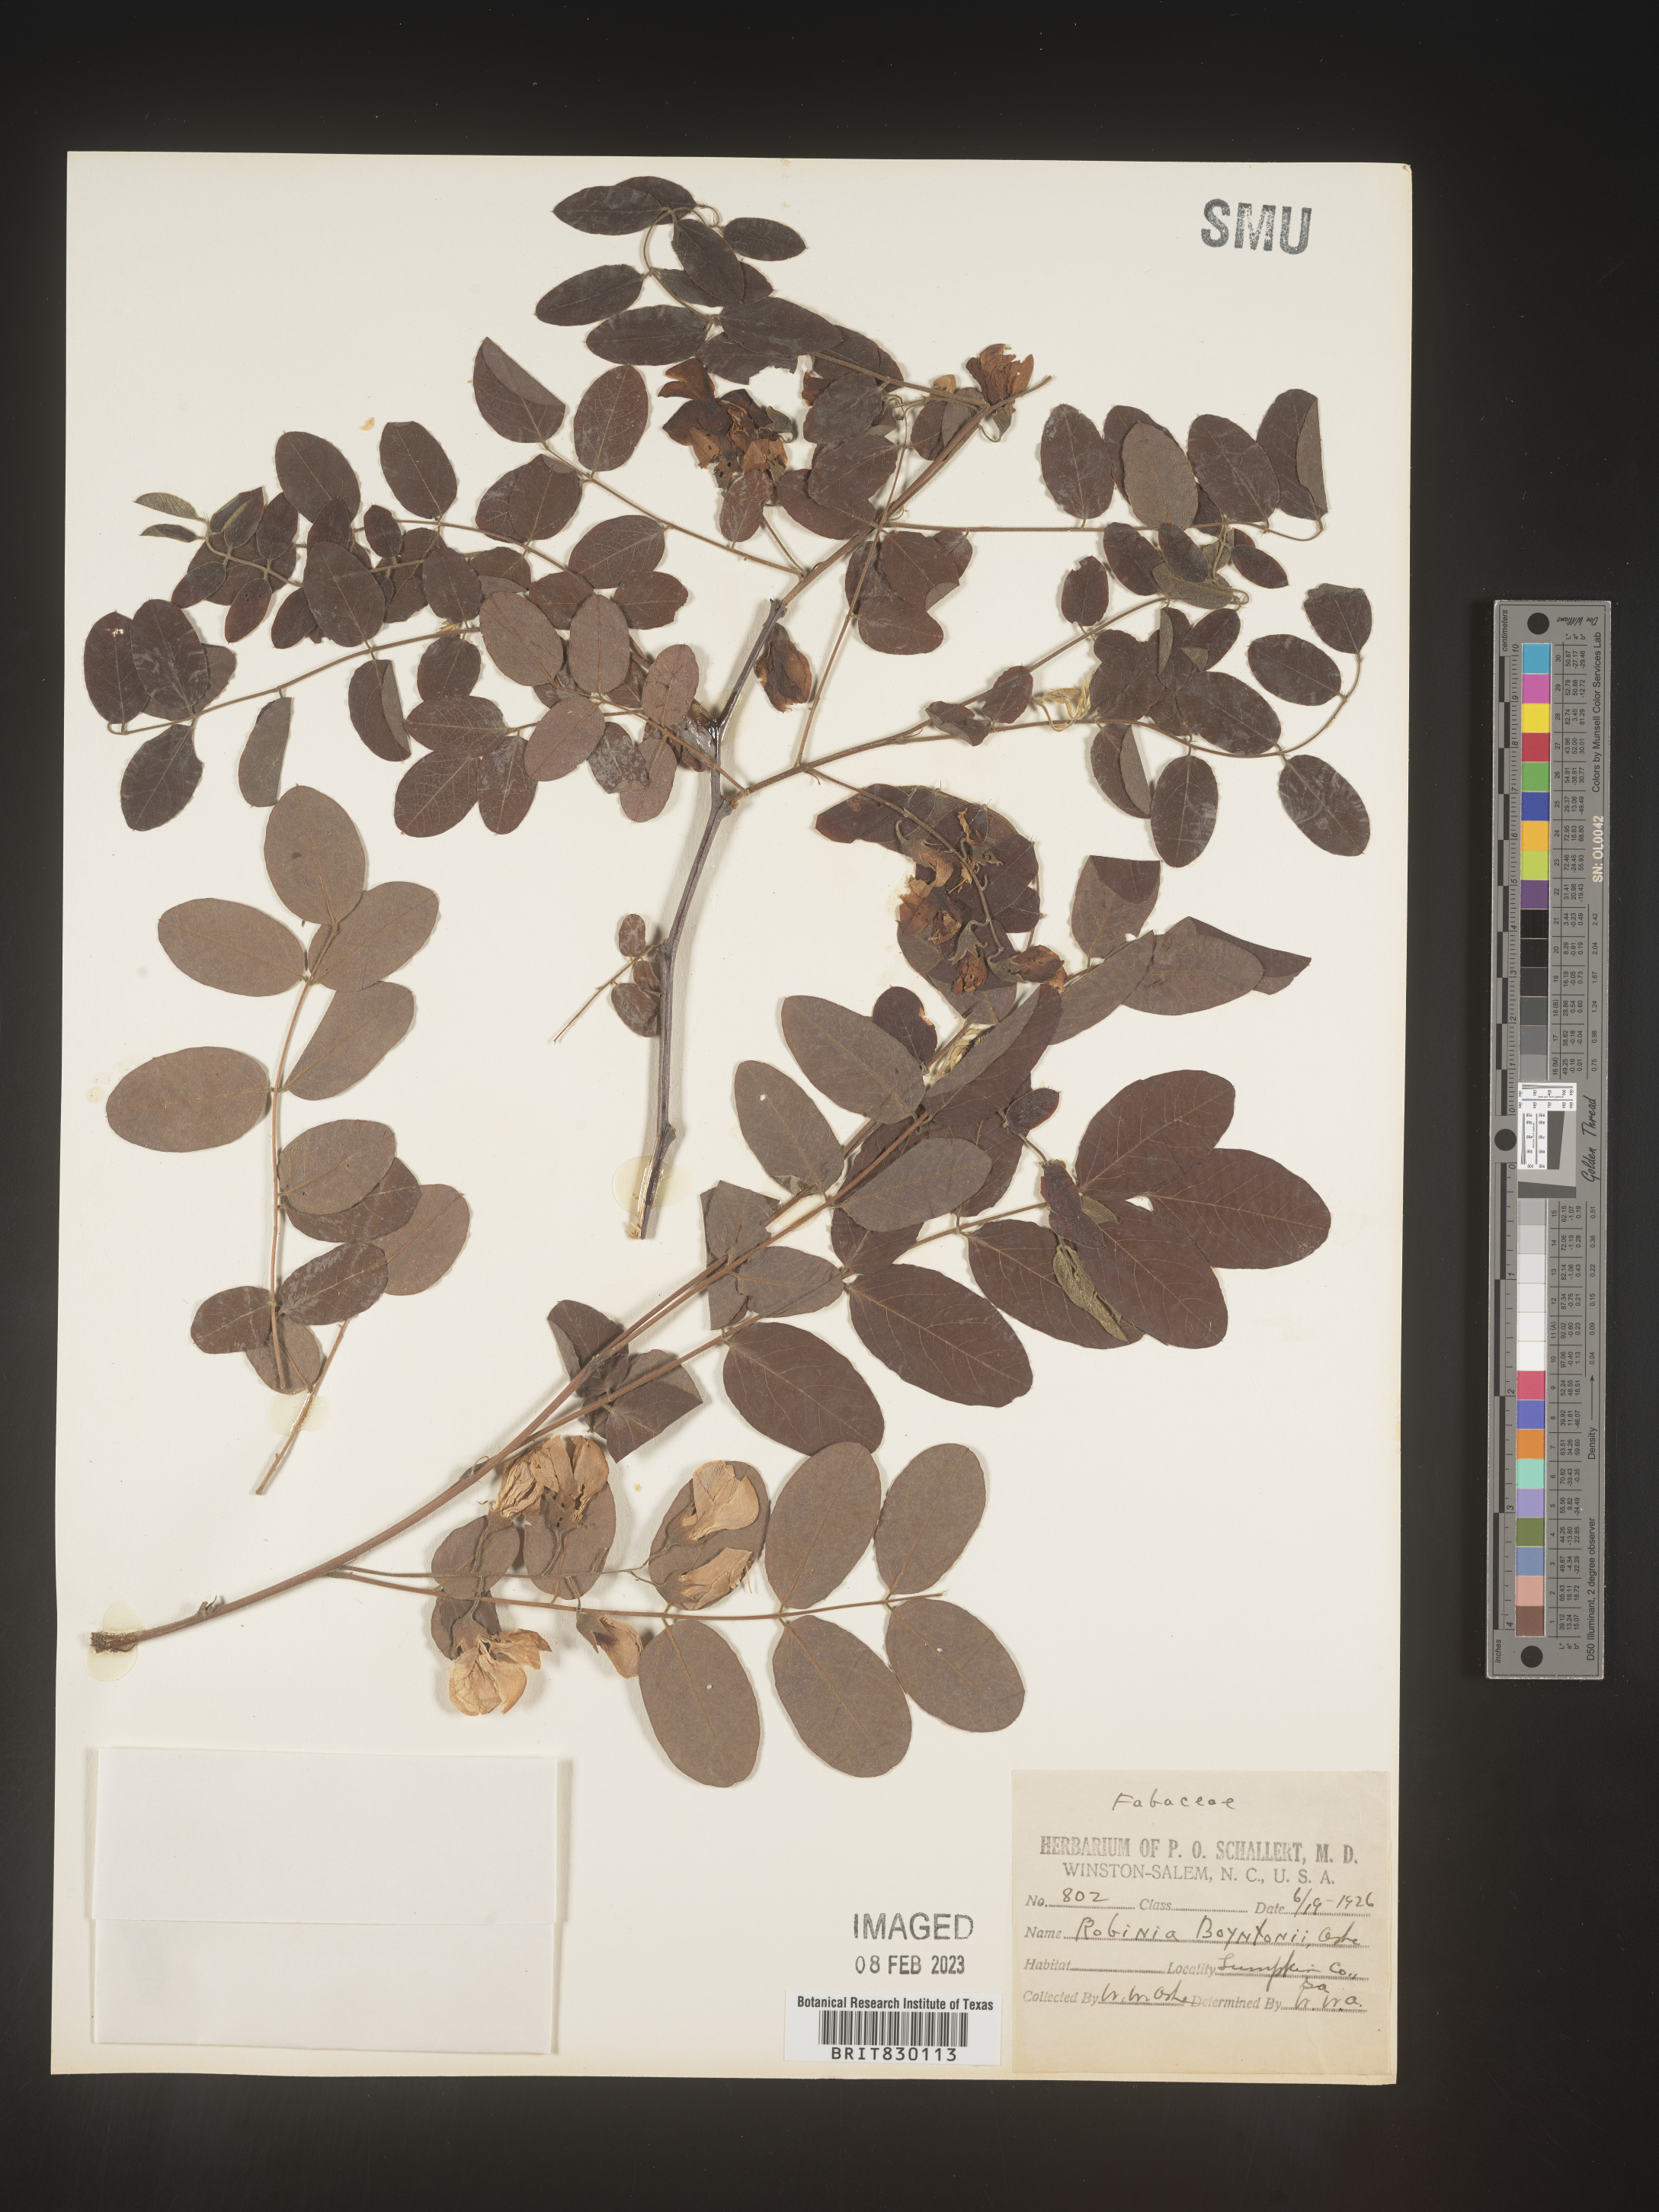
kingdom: Plantae
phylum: Tracheophyta
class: Magnoliopsida
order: Fabales
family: Fabaceae
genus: Robinia
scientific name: Robinia
